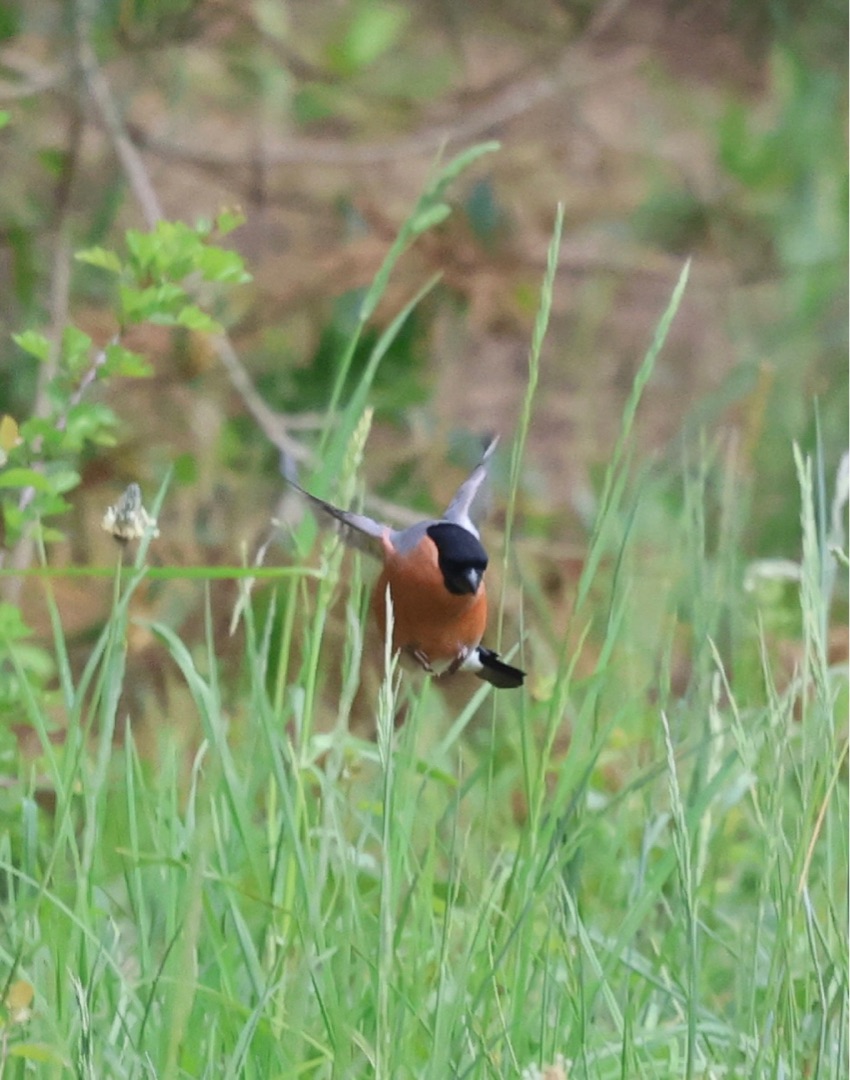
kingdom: Animalia
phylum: Chordata
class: Aves
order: Passeriformes
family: Fringillidae
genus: Pyrrhula
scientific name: Pyrrhula pyrrhula
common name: Dompap
